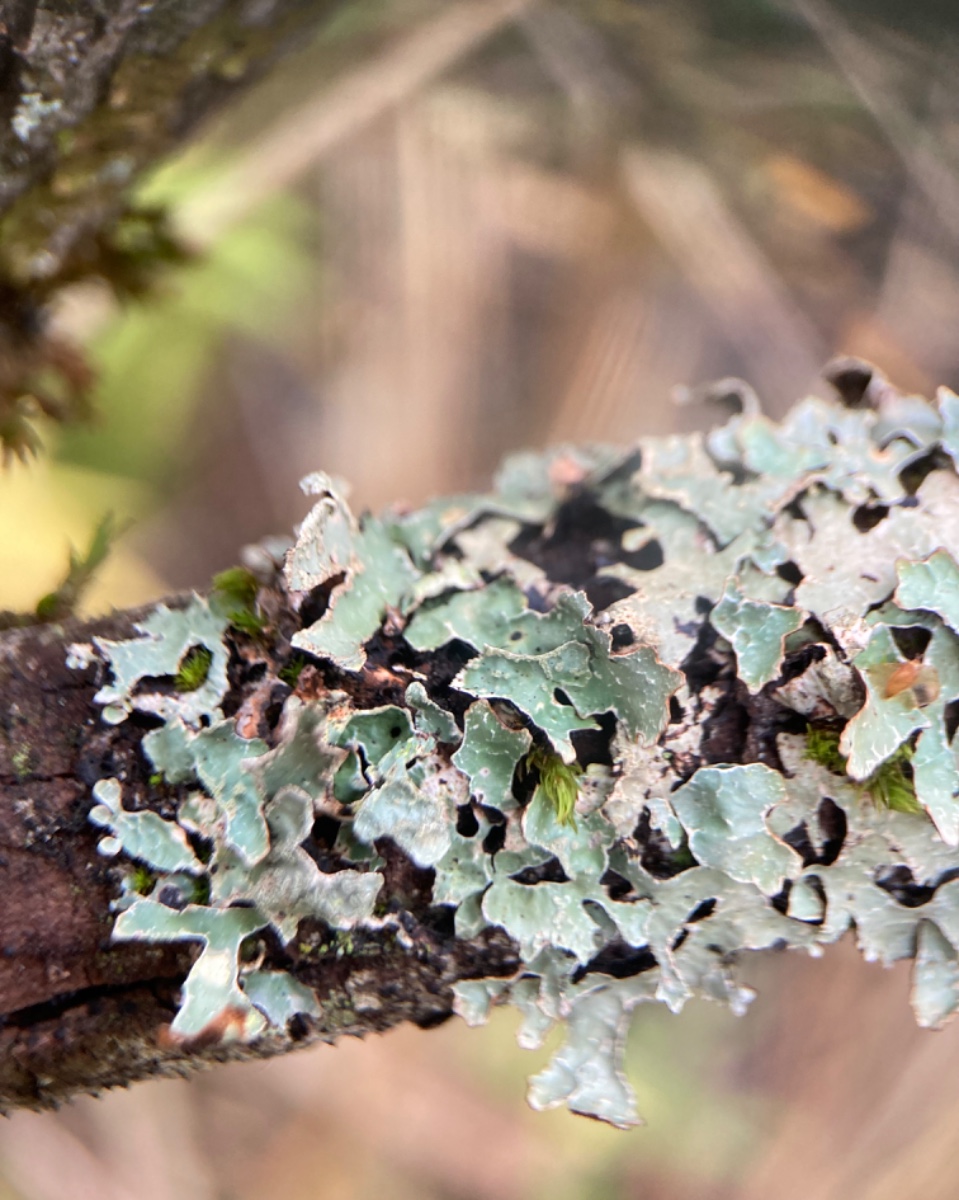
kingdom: Fungi
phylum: Ascomycota
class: Lecanoromycetes
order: Lecanorales
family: Parmeliaceae
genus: Parmelia
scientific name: Parmelia sulcata
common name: rynket skållav
